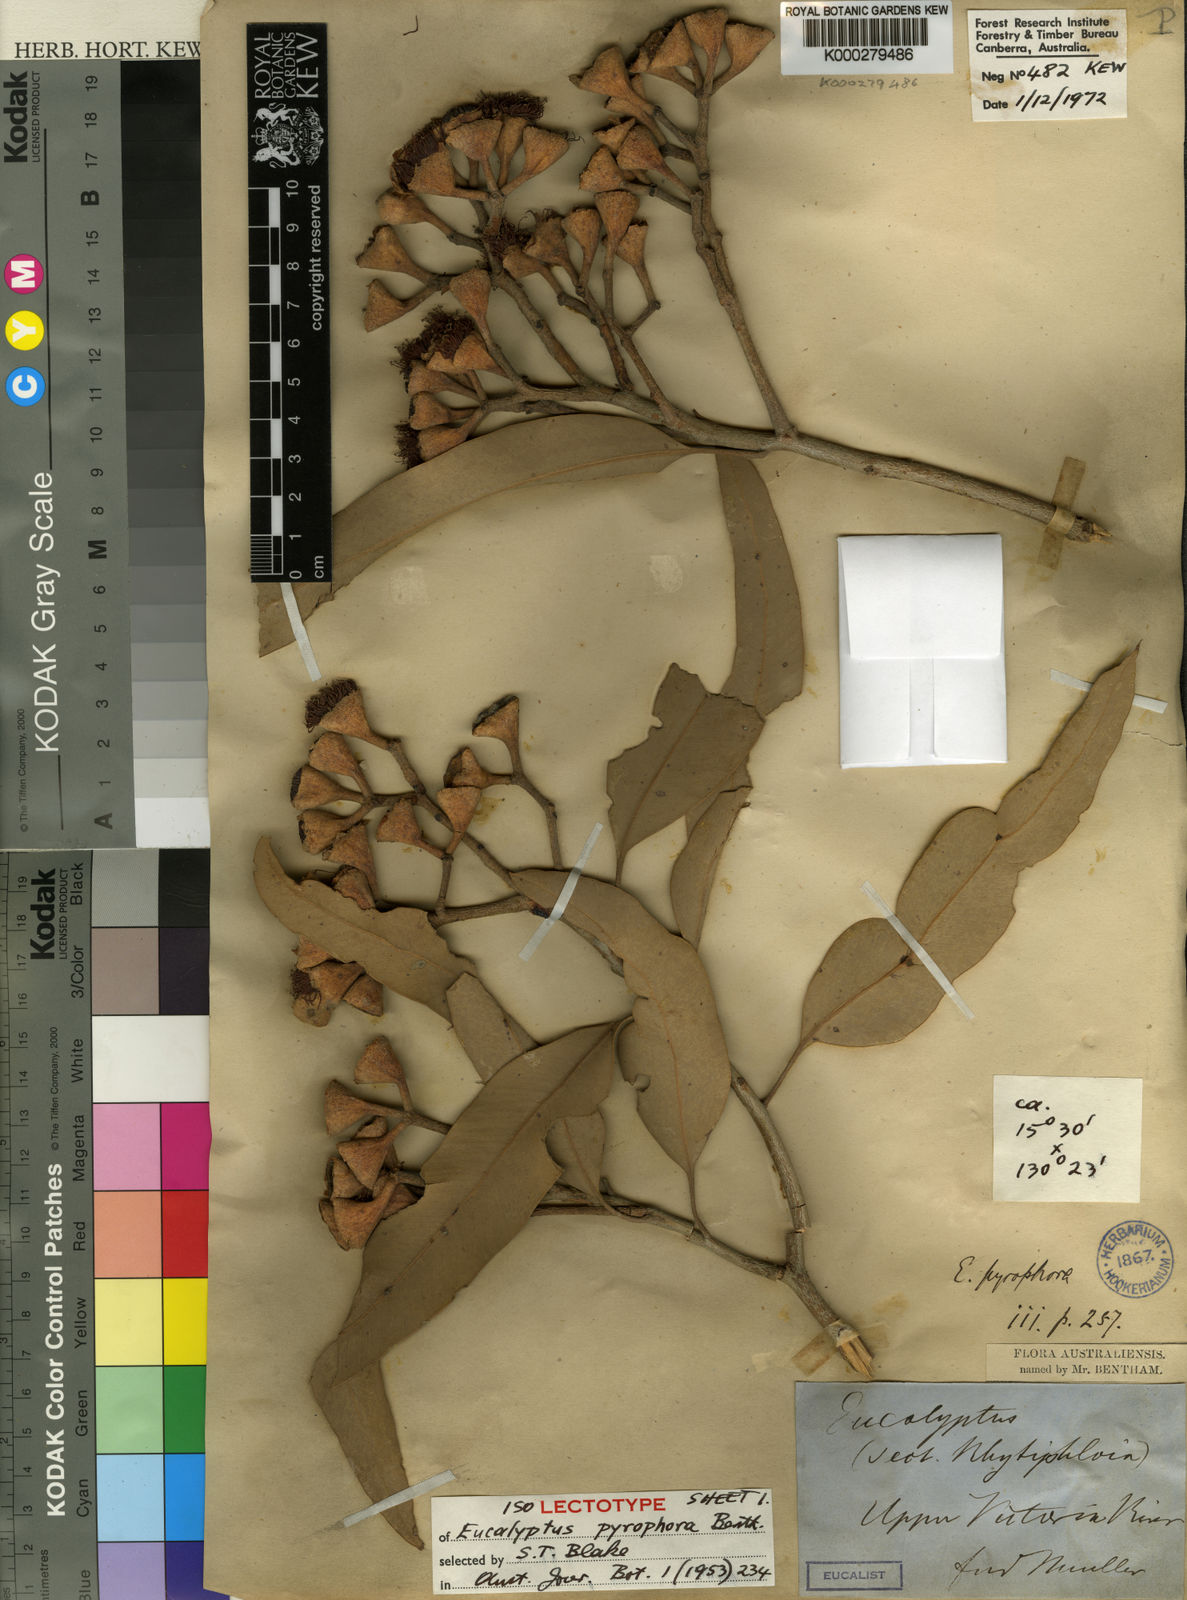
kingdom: Plantae
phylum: Tracheophyta
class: Magnoliopsida
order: Myrtales
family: Myrtaceae
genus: Corymbia
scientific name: Corymbia terminalis
